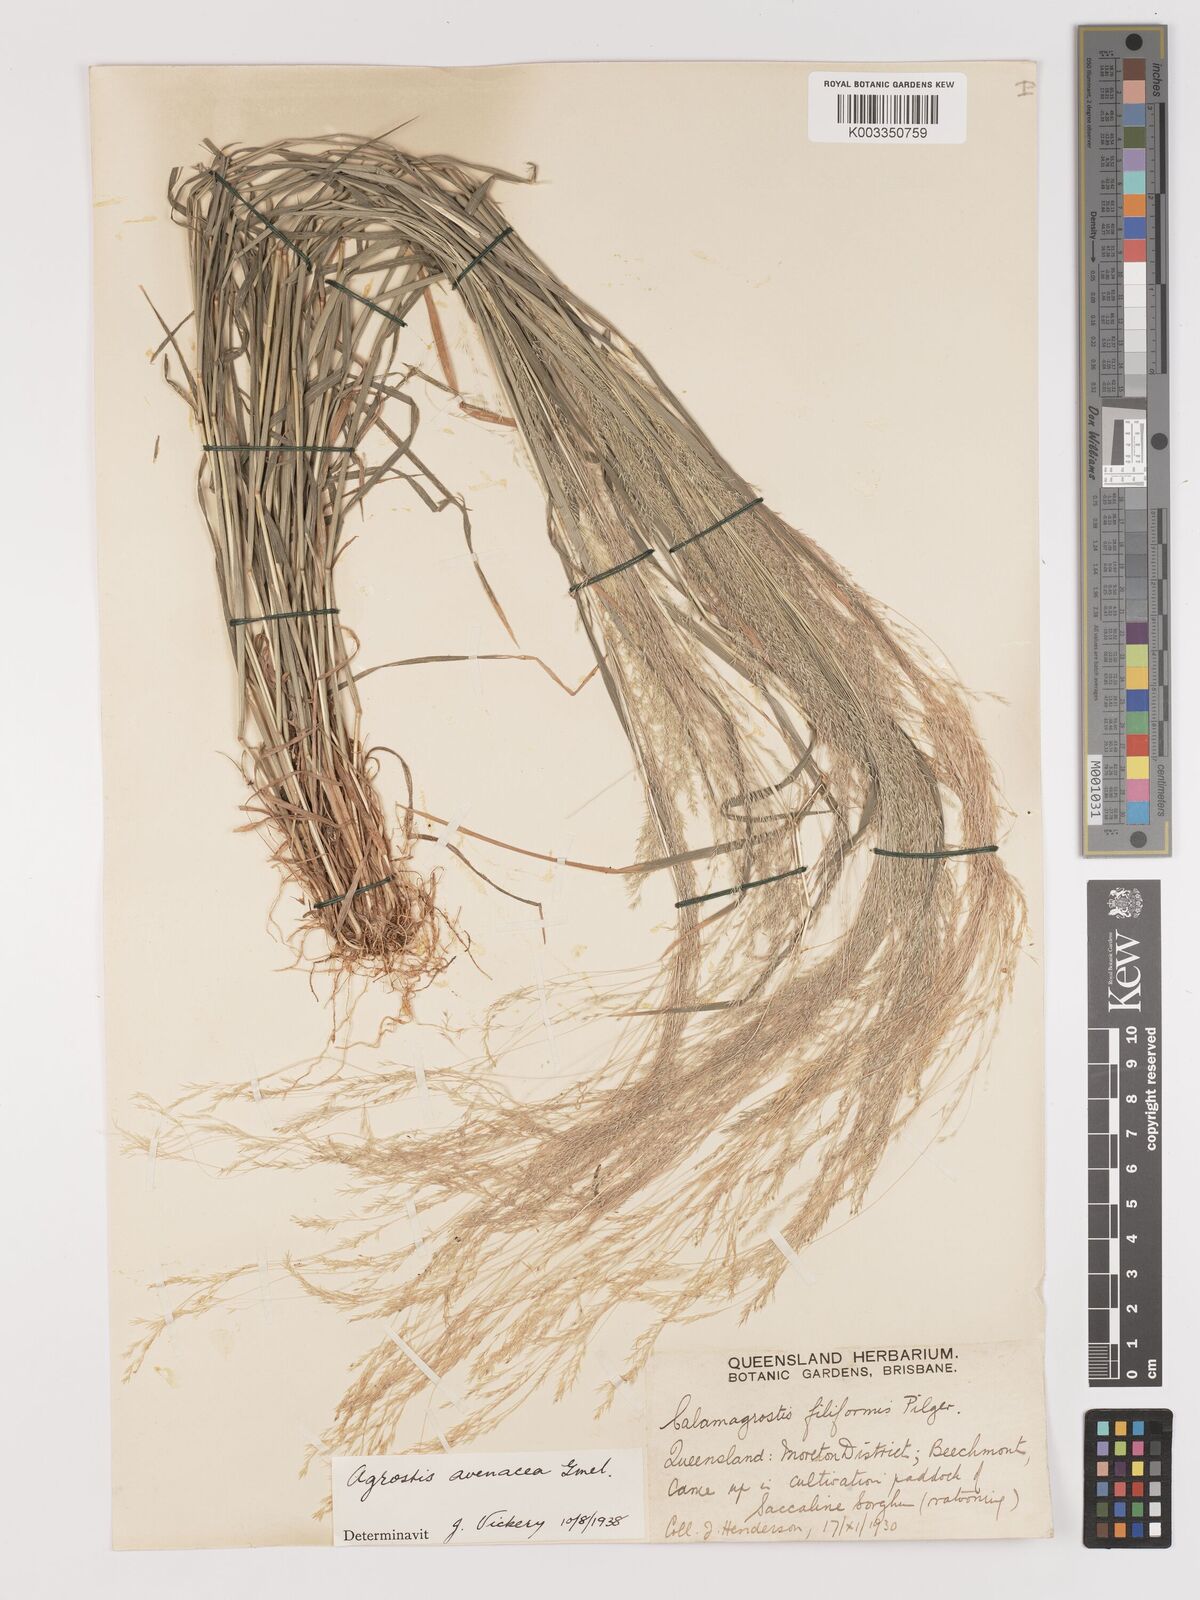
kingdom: Plantae
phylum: Tracheophyta
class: Liliopsida
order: Poales
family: Poaceae
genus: Lachnagrostis
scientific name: Lachnagrostis filiformis
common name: Bentgrass
